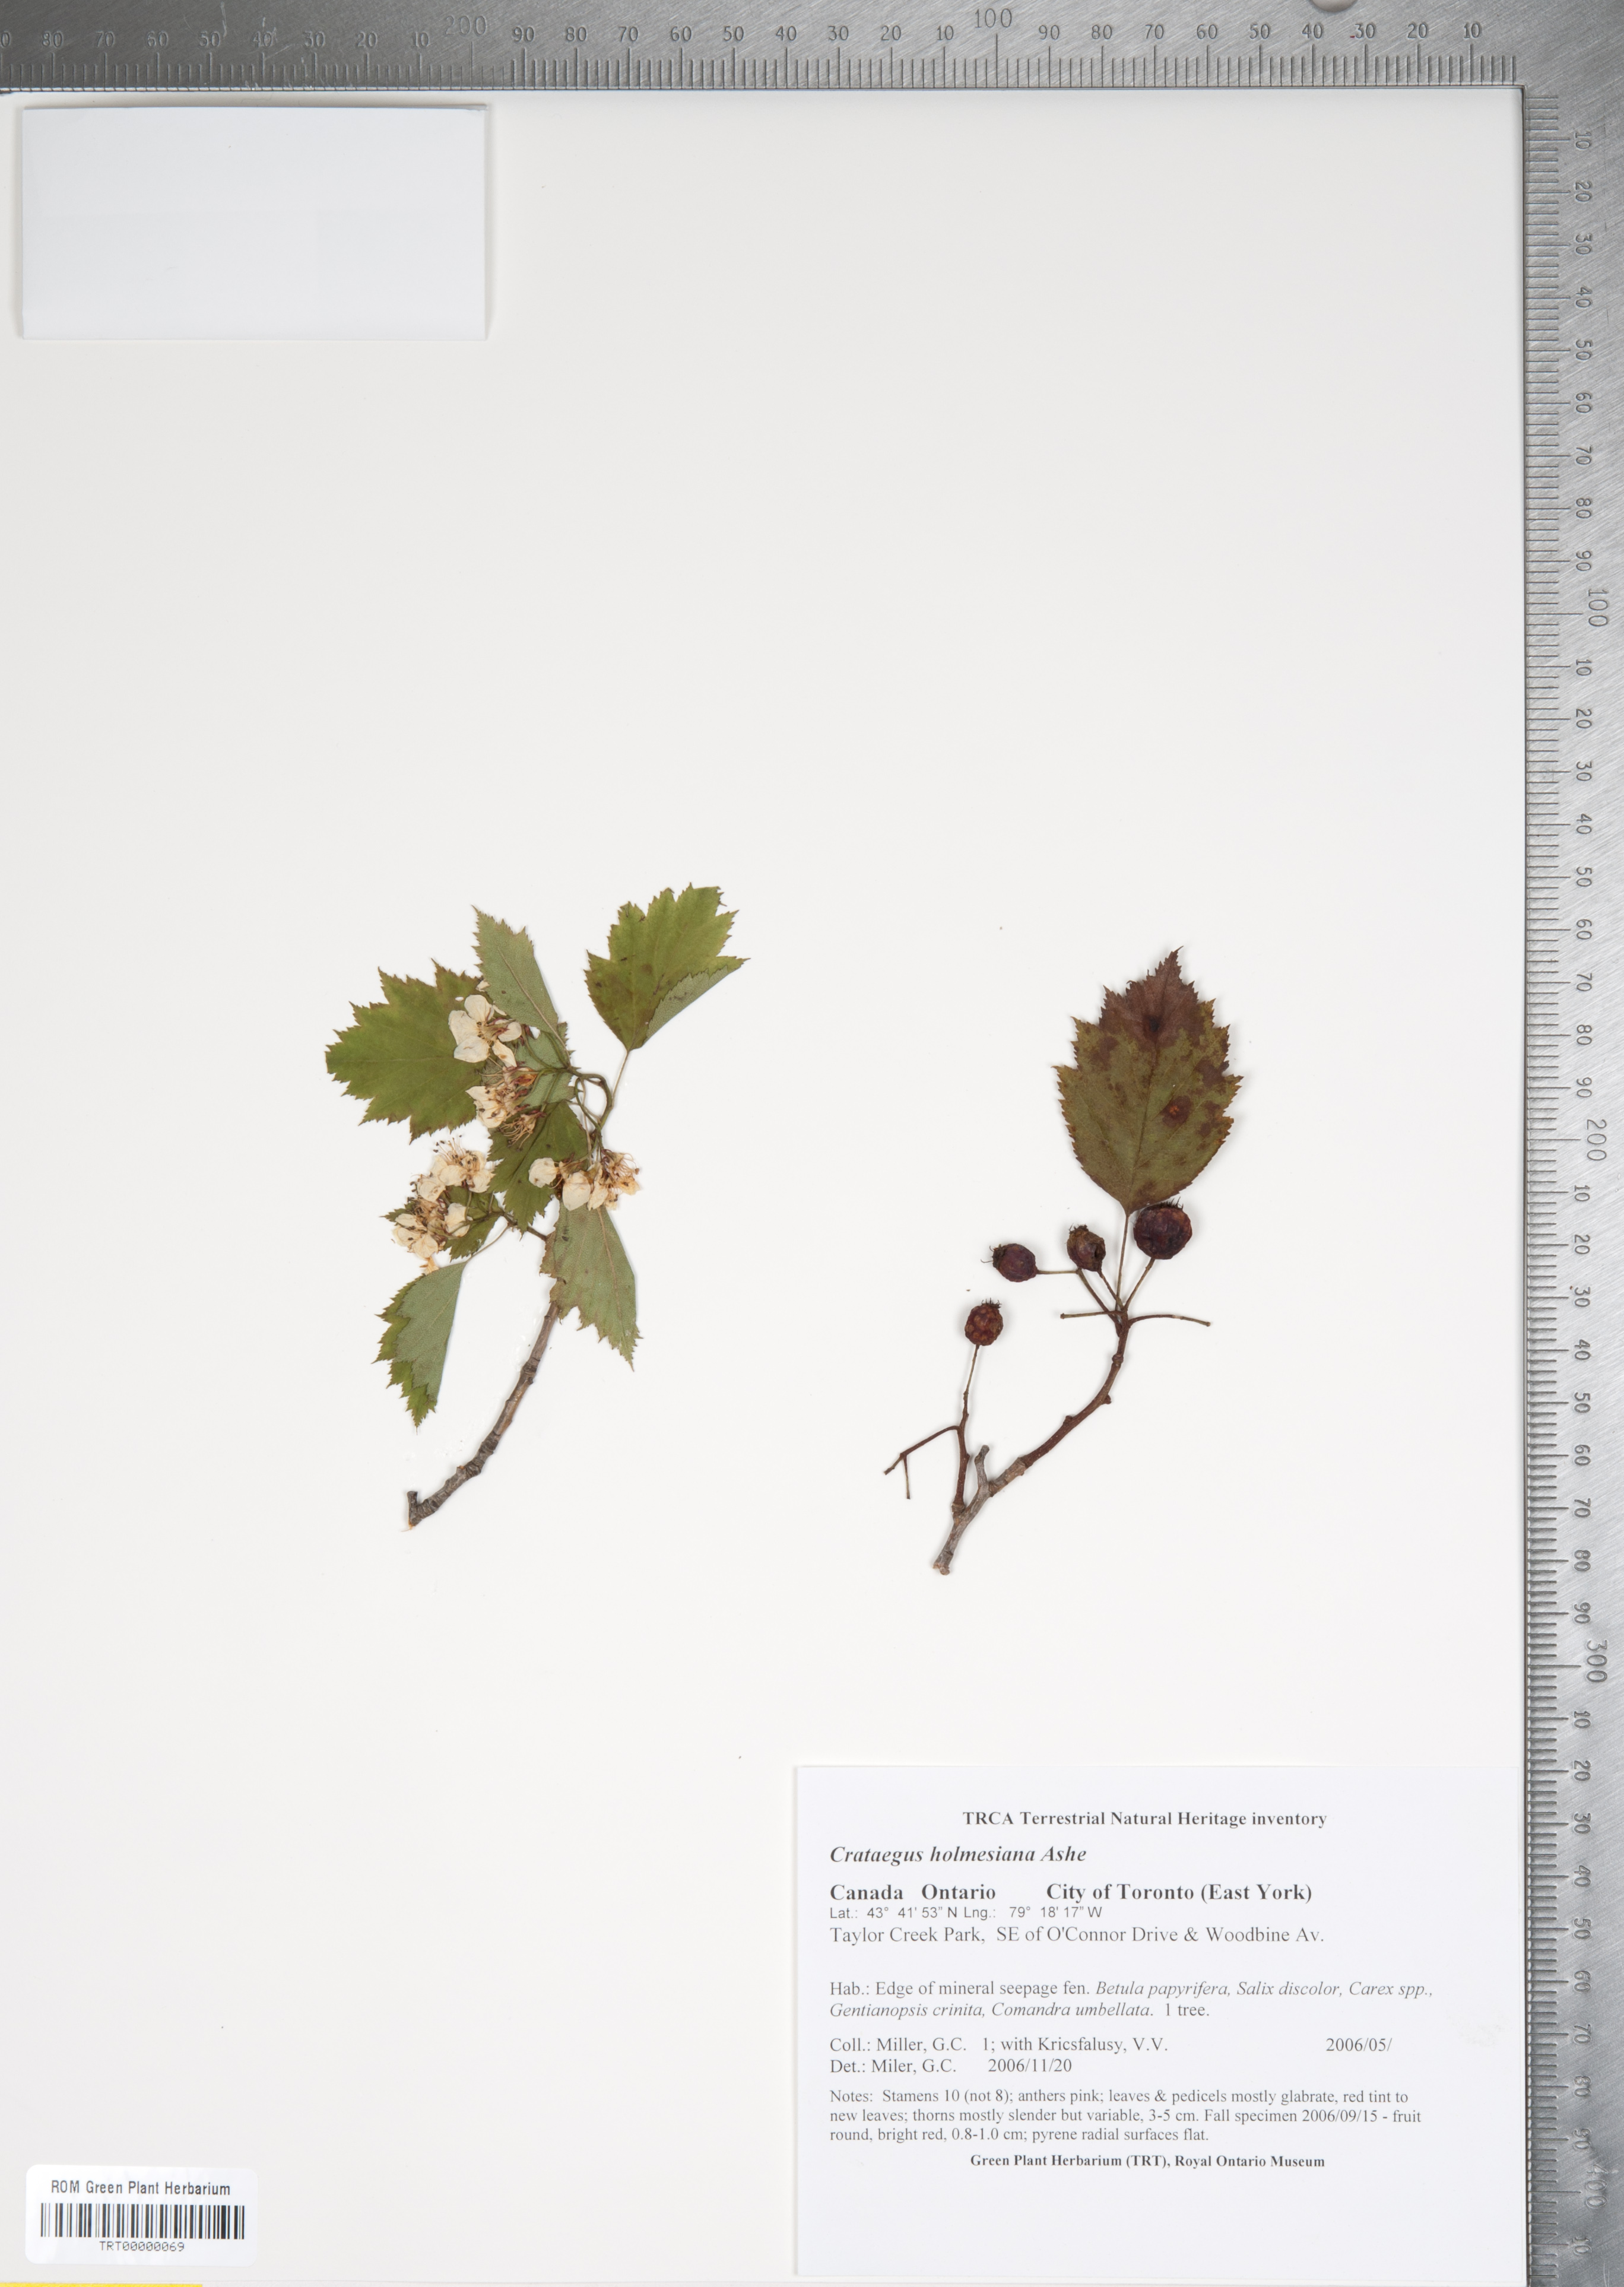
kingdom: Plantae
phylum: Tracheophyta
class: Magnoliopsida
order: Rosales
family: Rosaceae
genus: Crataegus
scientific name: Crataegus holmesiana
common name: Holmes' hawthorn
